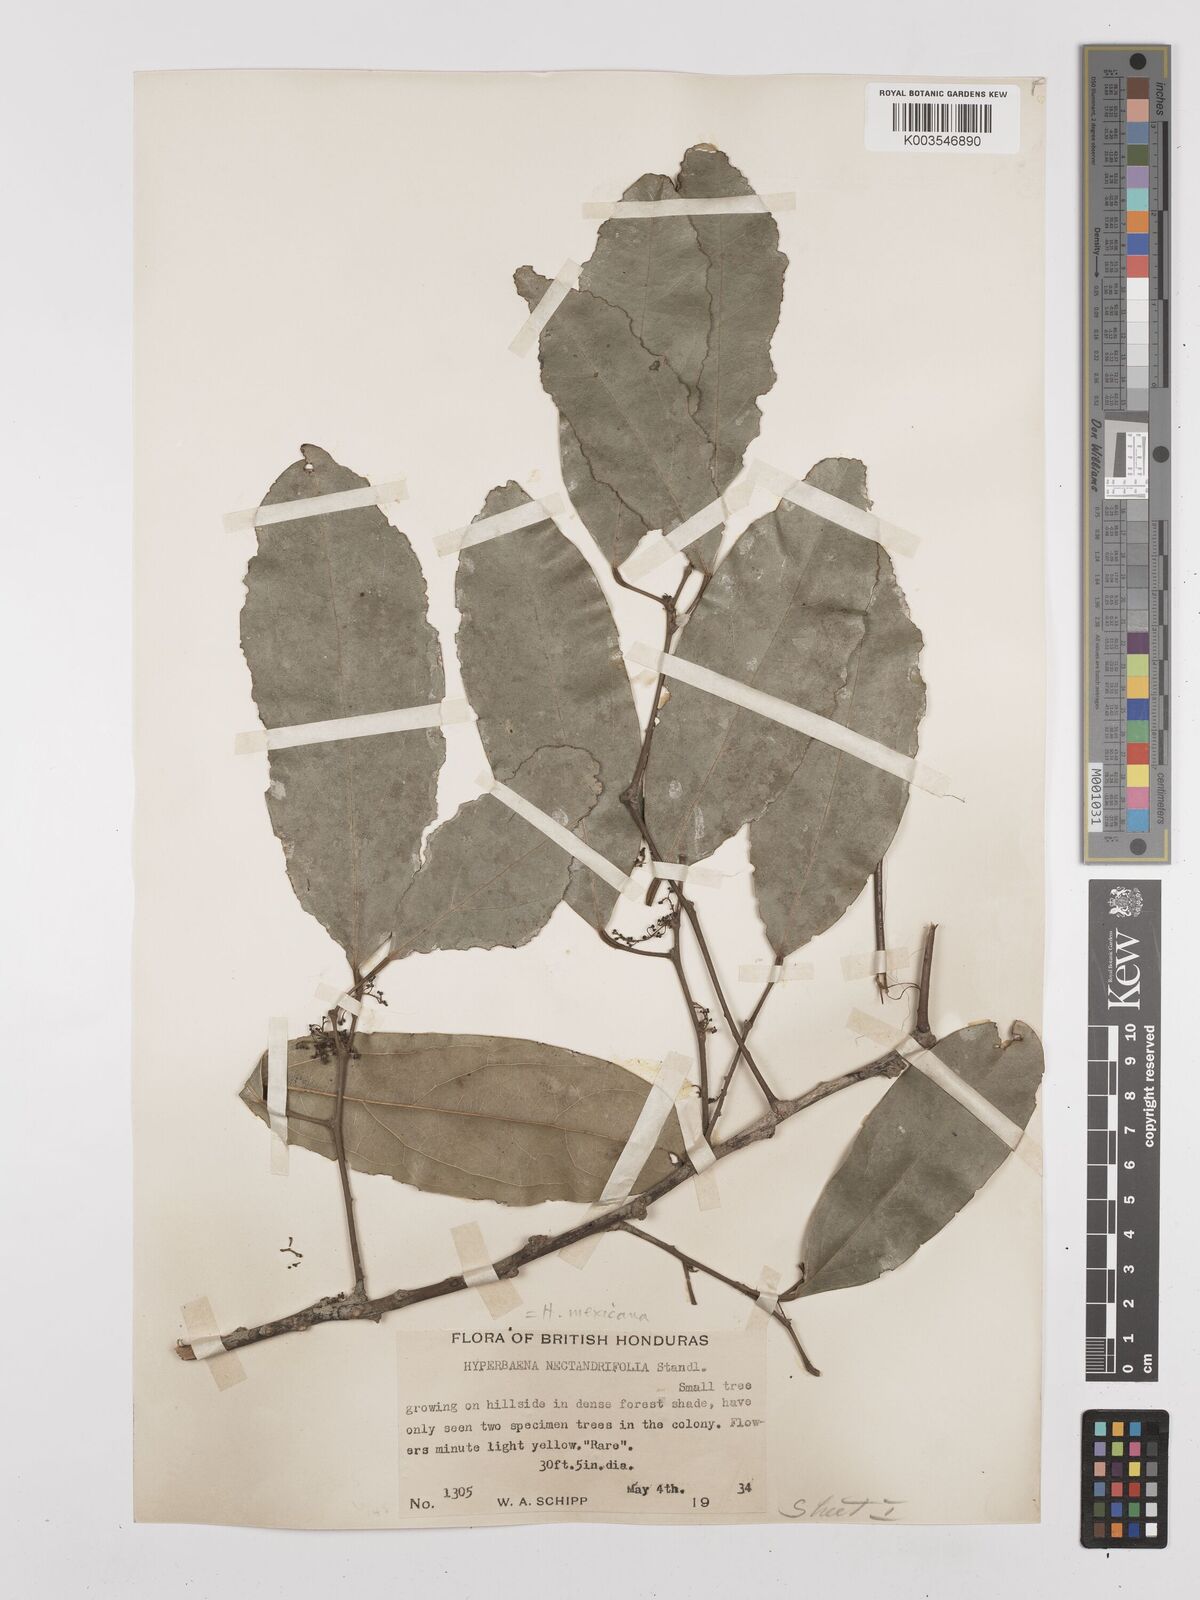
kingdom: Plantae
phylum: Tracheophyta
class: Magnoliopsida
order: Ranunculales
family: Menispermaceae
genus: Hyperbaena
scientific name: Hyperbaena mexicana
